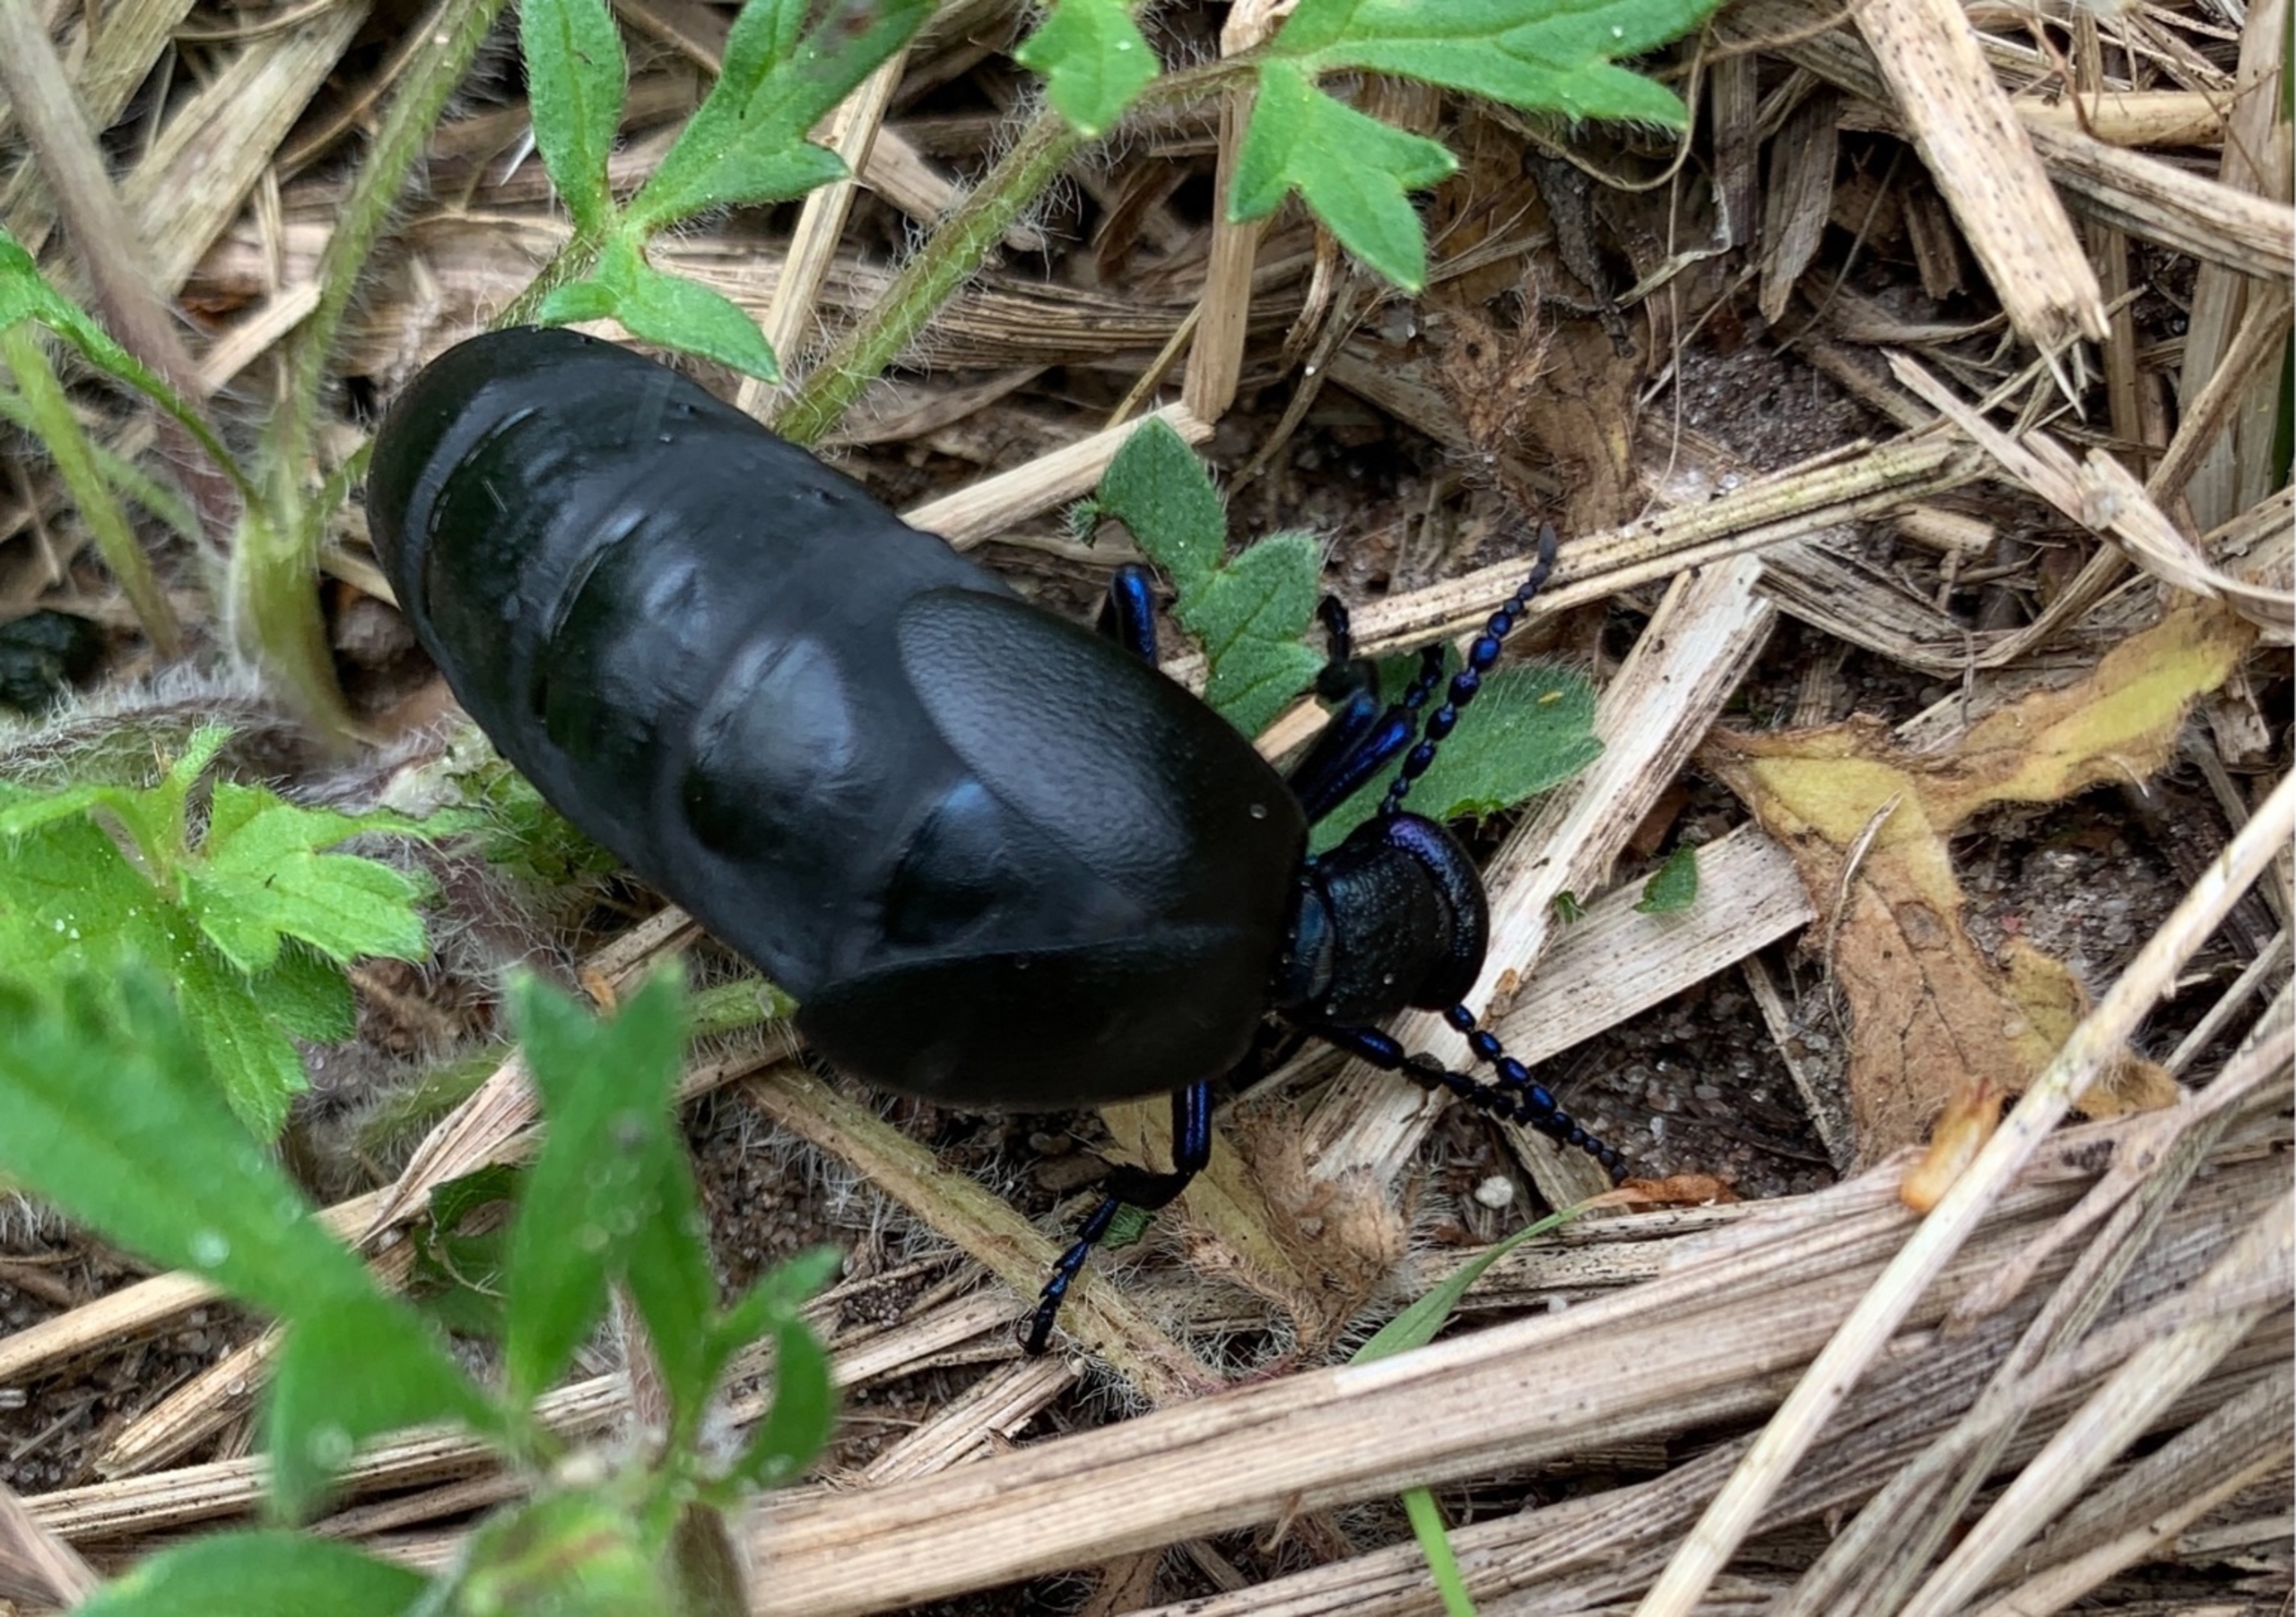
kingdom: Animalia
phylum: Arthropoda
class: Insecta
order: Coleoptera
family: Meloidae
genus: Meloe
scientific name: Meloe proscarabaeus
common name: Sort oliebille
